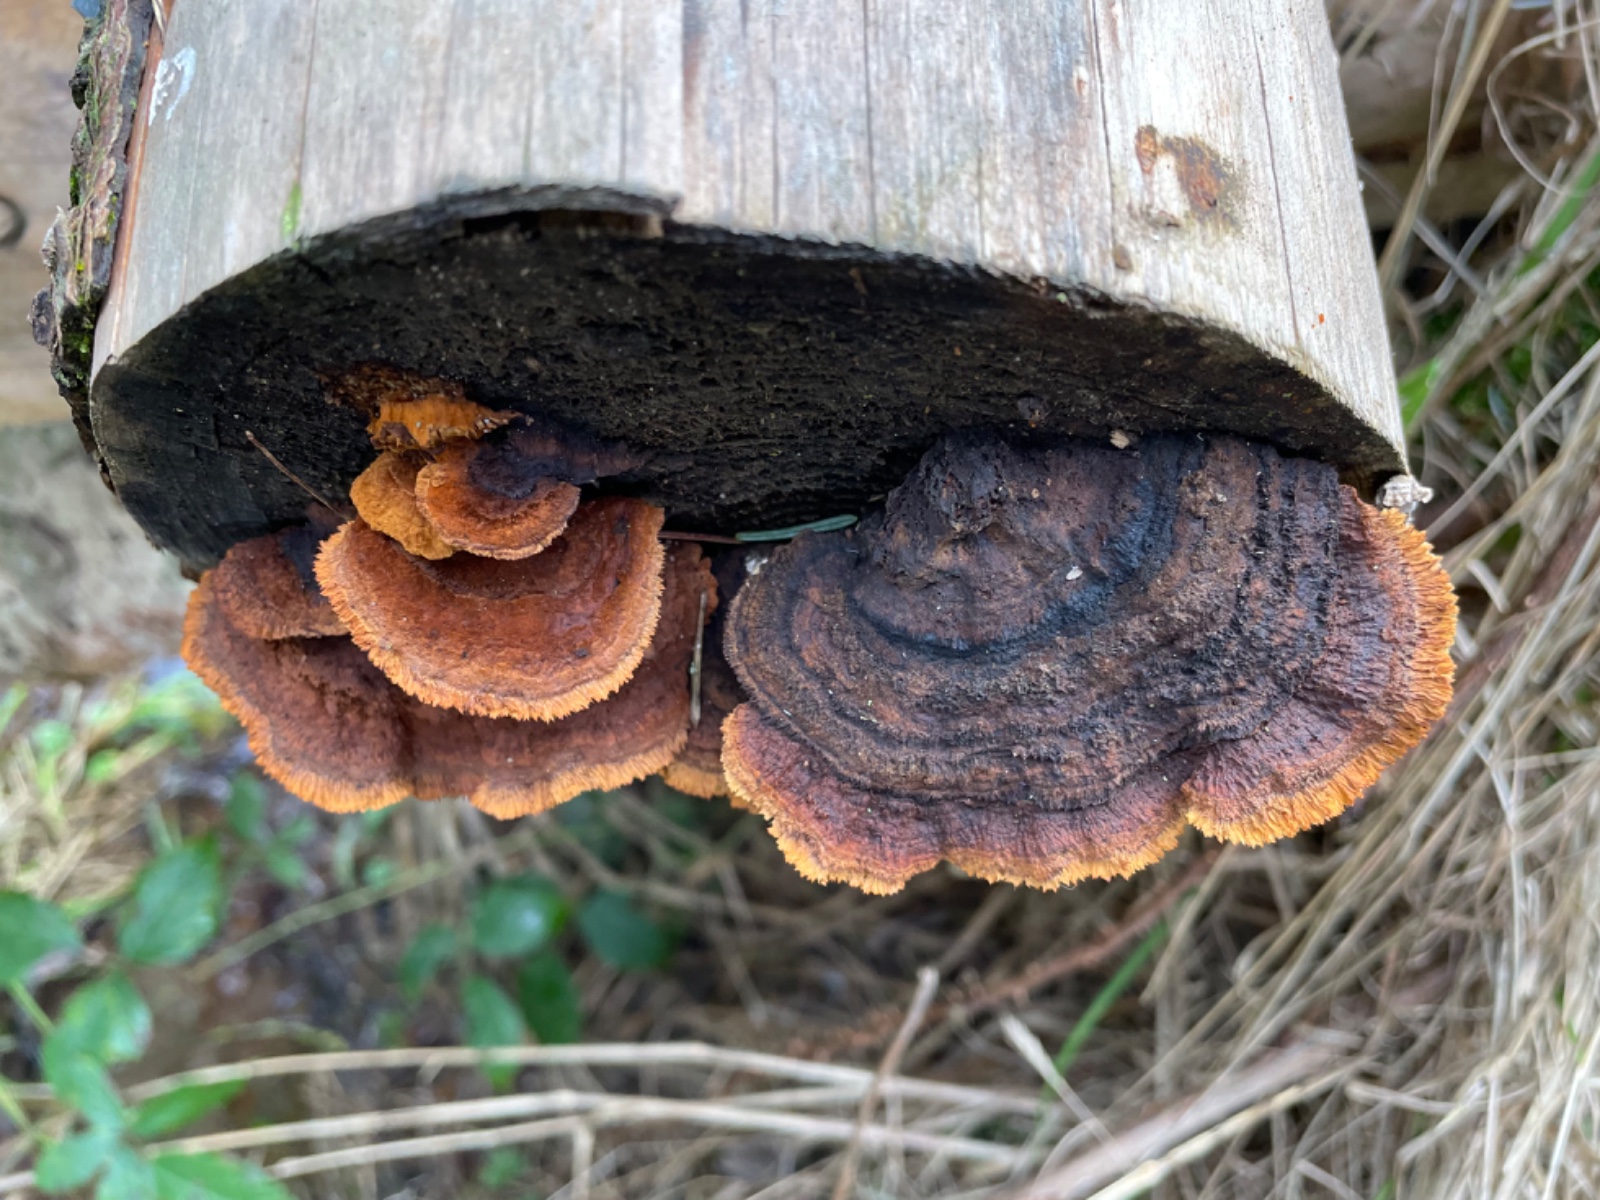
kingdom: Fungi
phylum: Basidiomycota
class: Agaricomycetes
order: Gloeophyllales
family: Gloeophyllaceae
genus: Gloeophyllum
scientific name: Gloeophyllum sepiarium
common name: fyrre-korkhat
